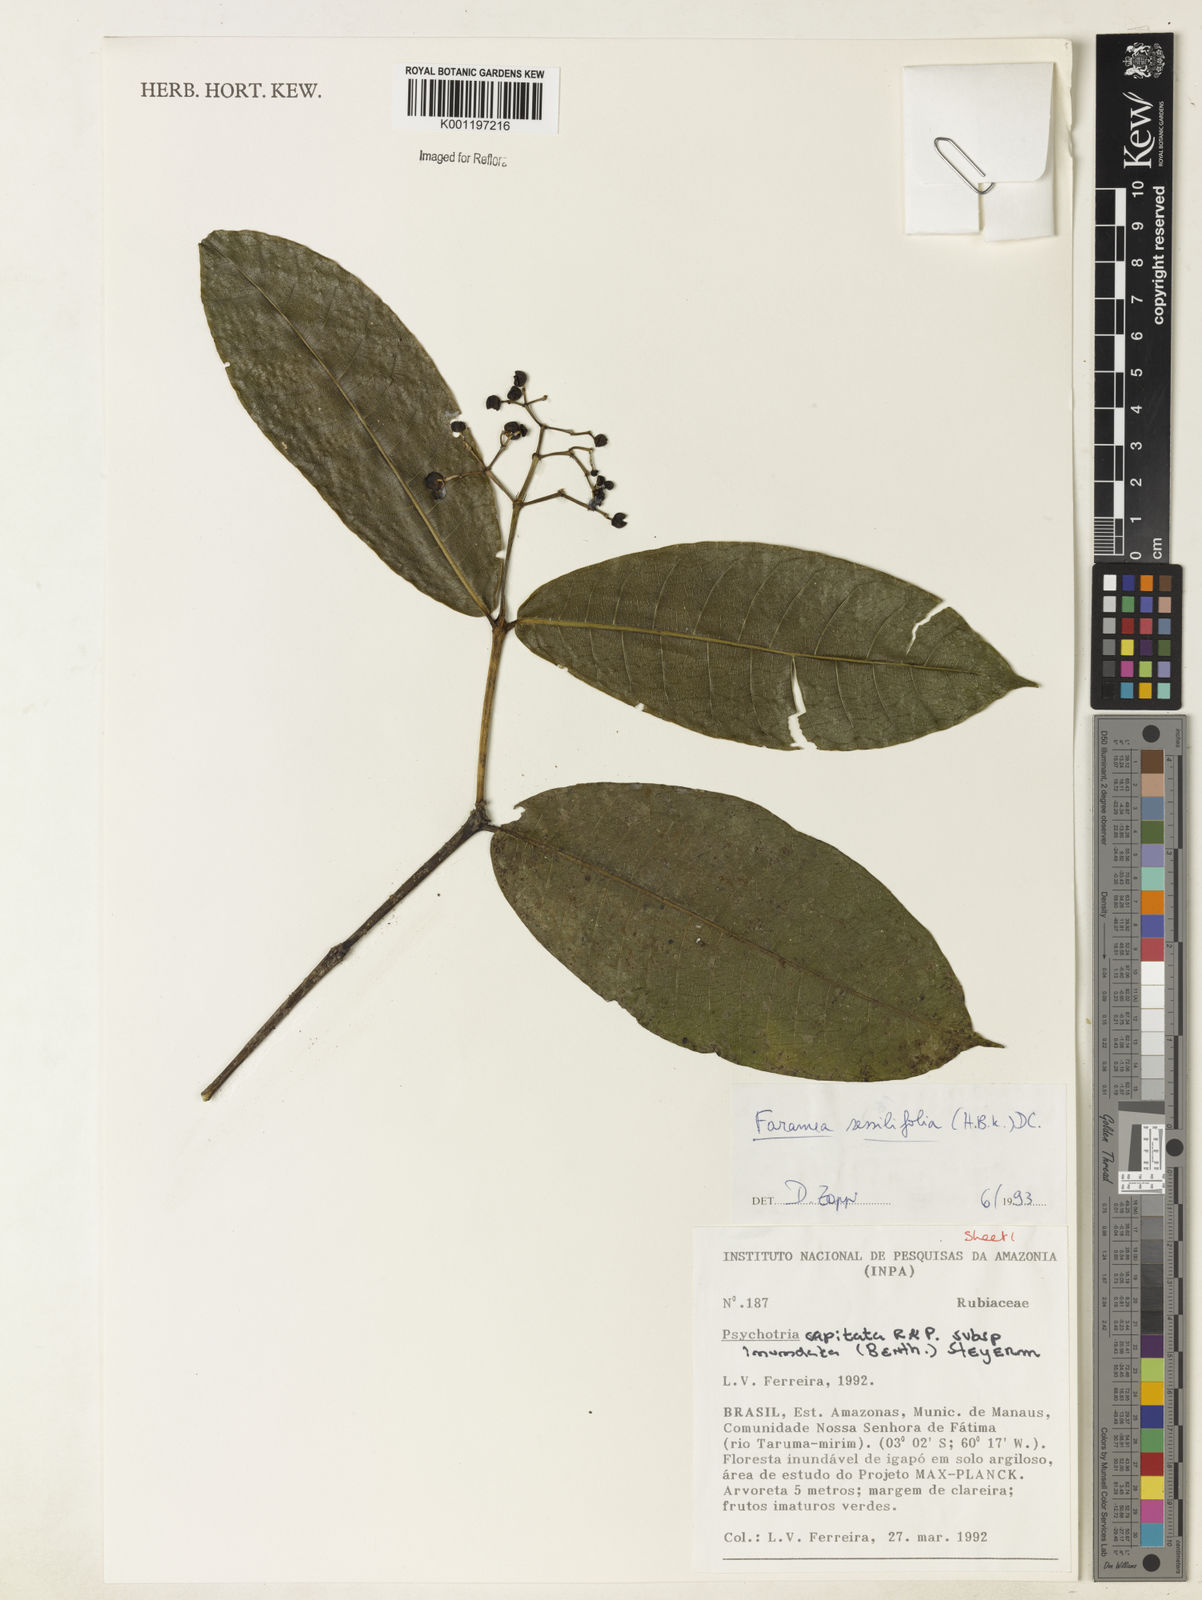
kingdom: Plantae
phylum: Tracheophyta
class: Magnoliopsida
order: Gentianales
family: Rubiaceae
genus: Faramea
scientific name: Faramea sessilifolia
